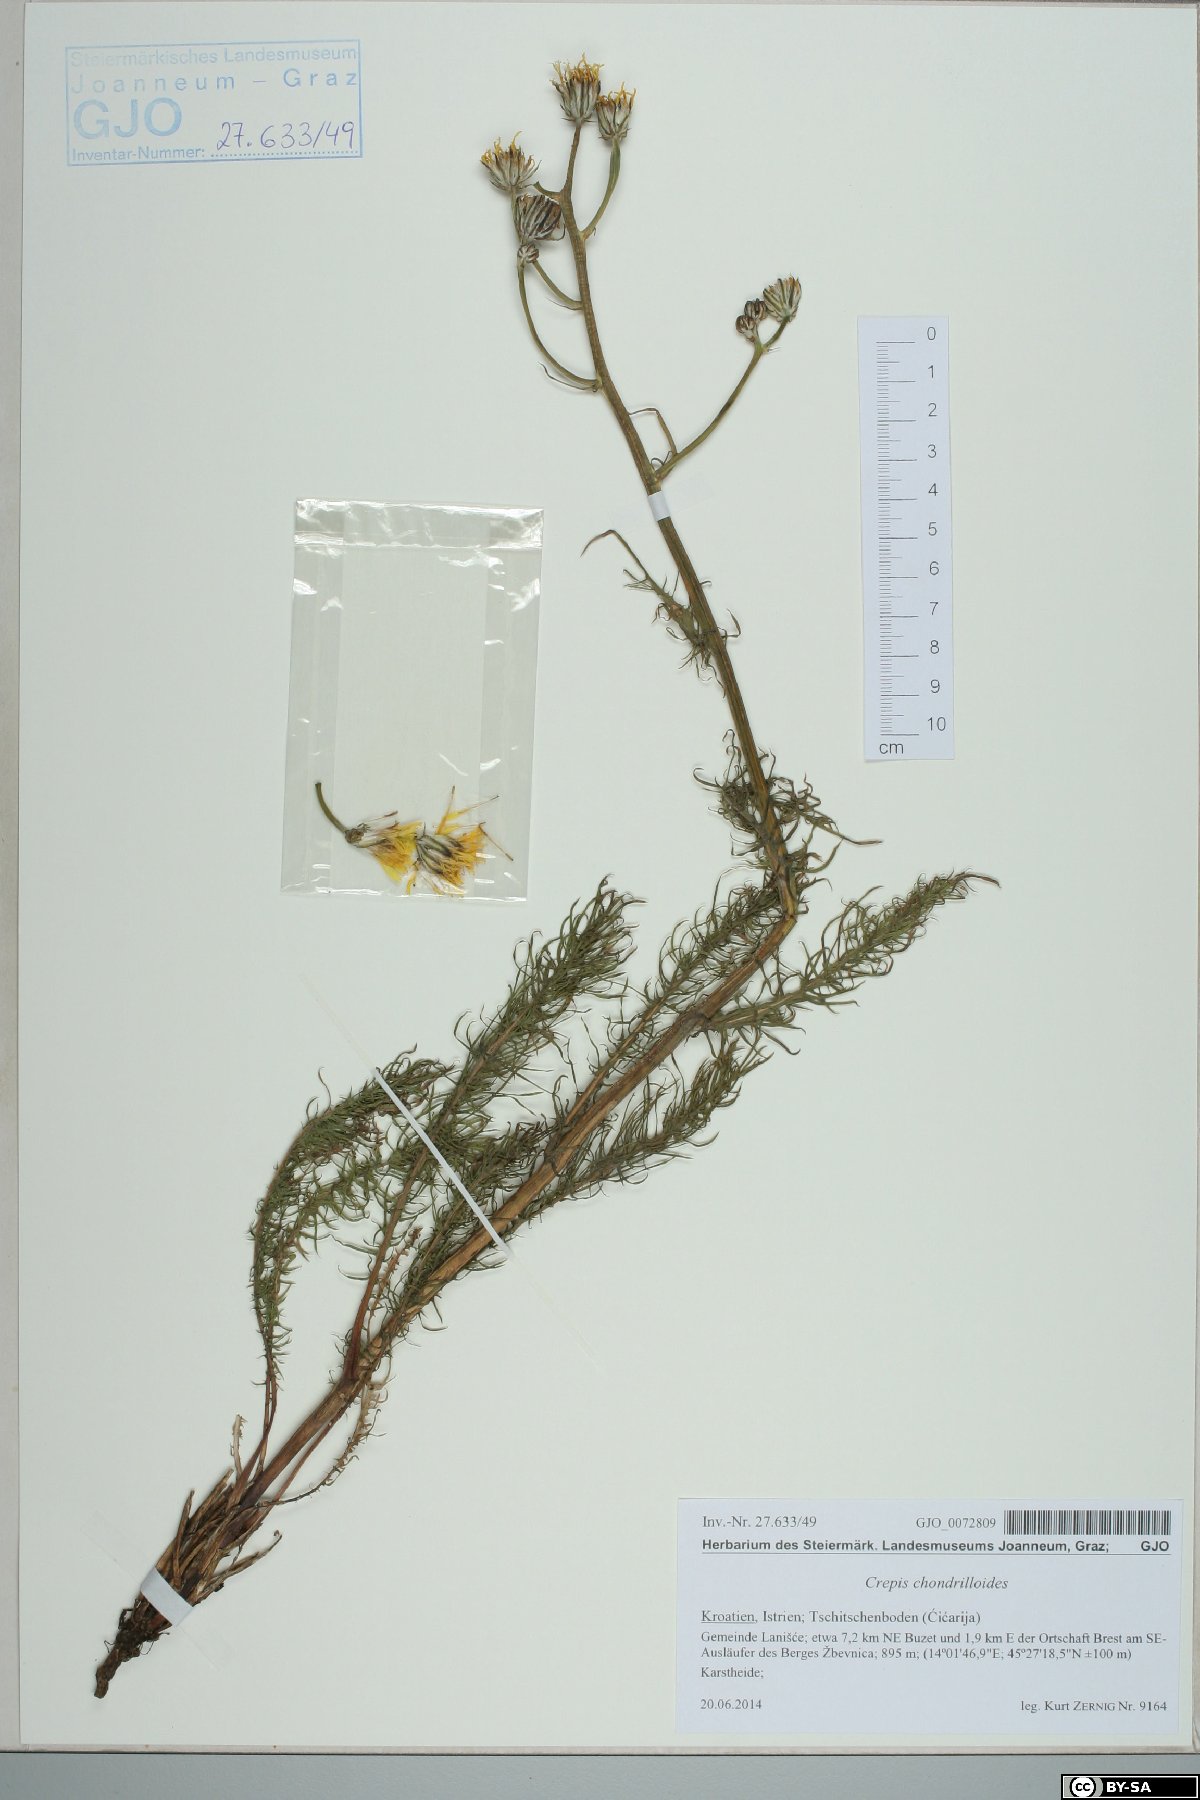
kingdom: Plantae
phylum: Tracheophyta
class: Magnoliopsida
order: Asterales
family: Asteraceae
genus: Crepis
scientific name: Crepis chondrilloides
